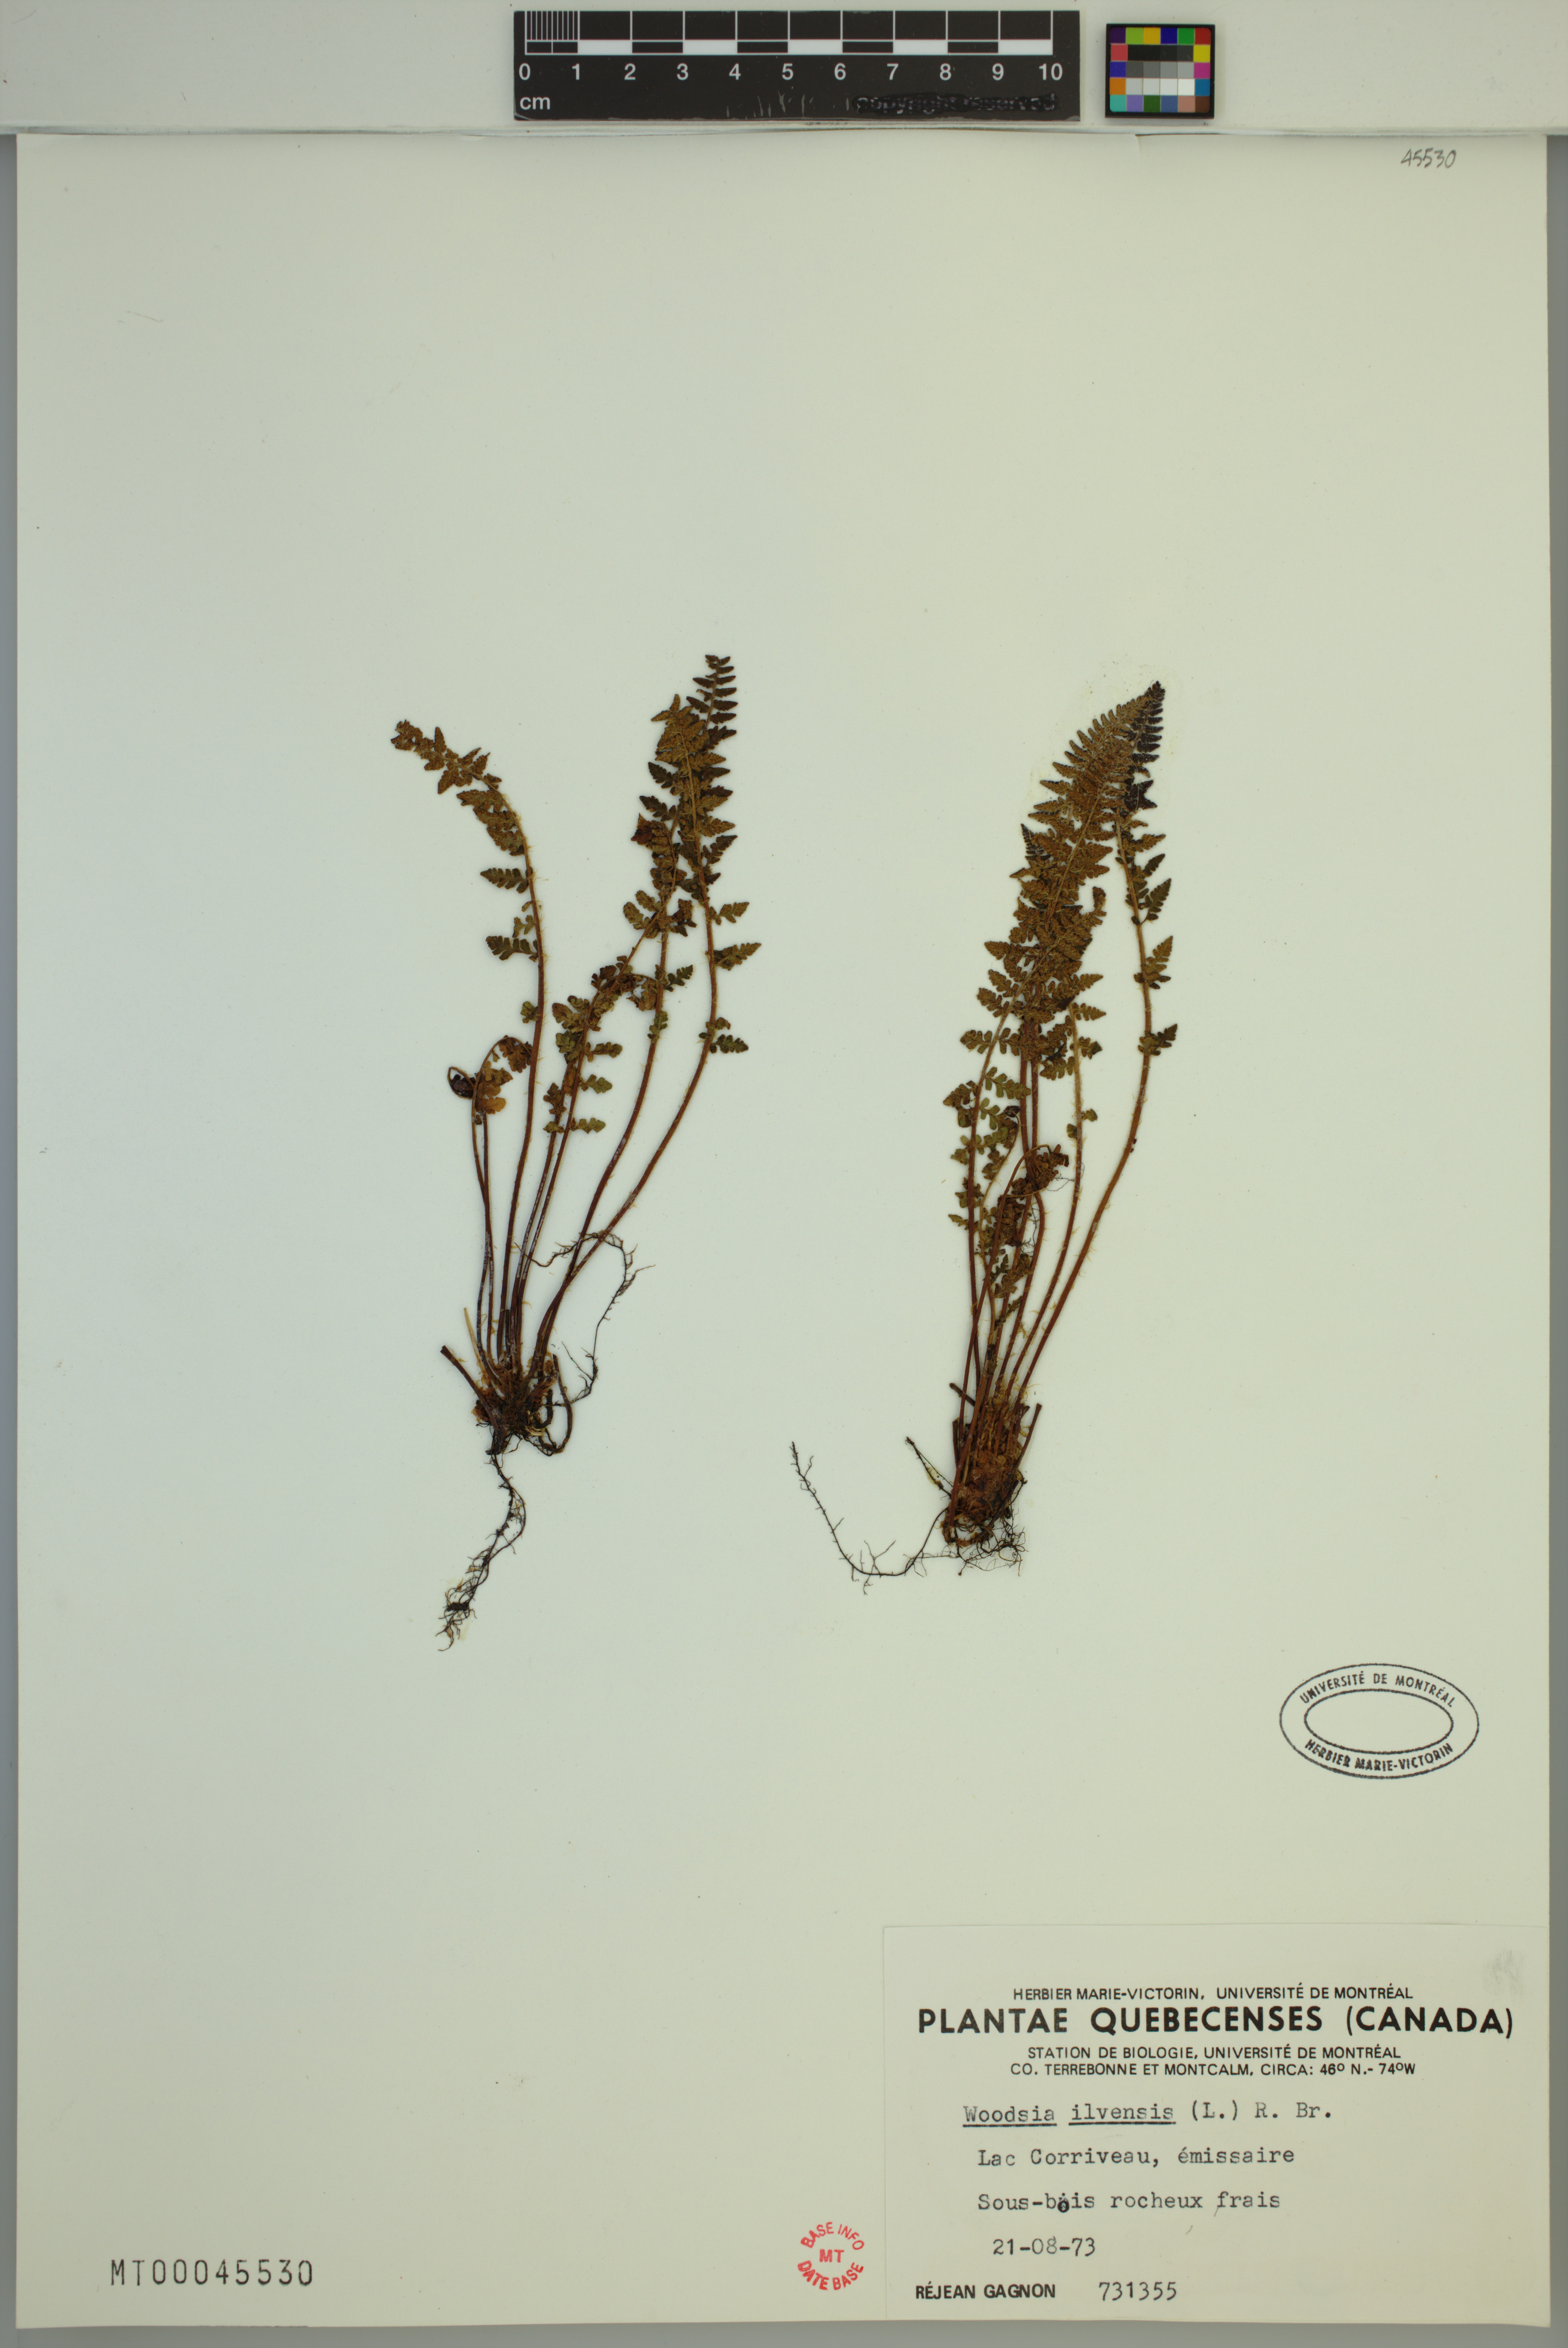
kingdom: Plantae
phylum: Tracheophyta
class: Polypodiopsida
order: Polypodiales
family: Woodsiaceae
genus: Woodsia
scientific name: Woodsia ilvensis
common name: Fragrant woodsia
